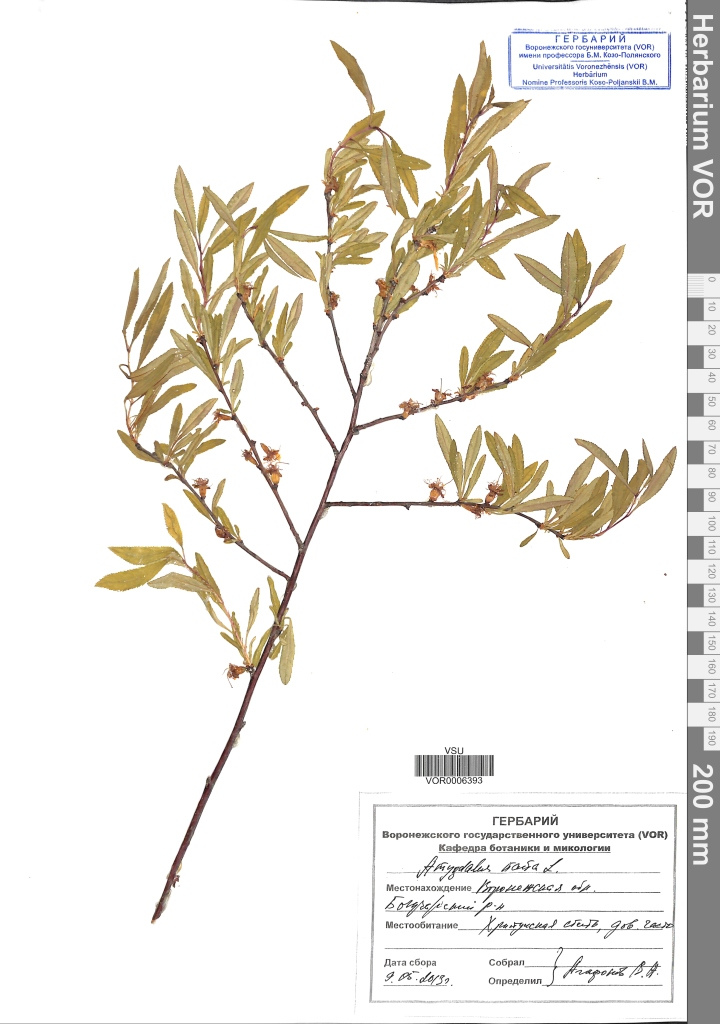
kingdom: Plantae
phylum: Tracheophyta
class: Magnoliopsida
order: Rosales
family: Rosaceae
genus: Prunus
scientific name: Prunus tenella
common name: Dwarf russian almond
